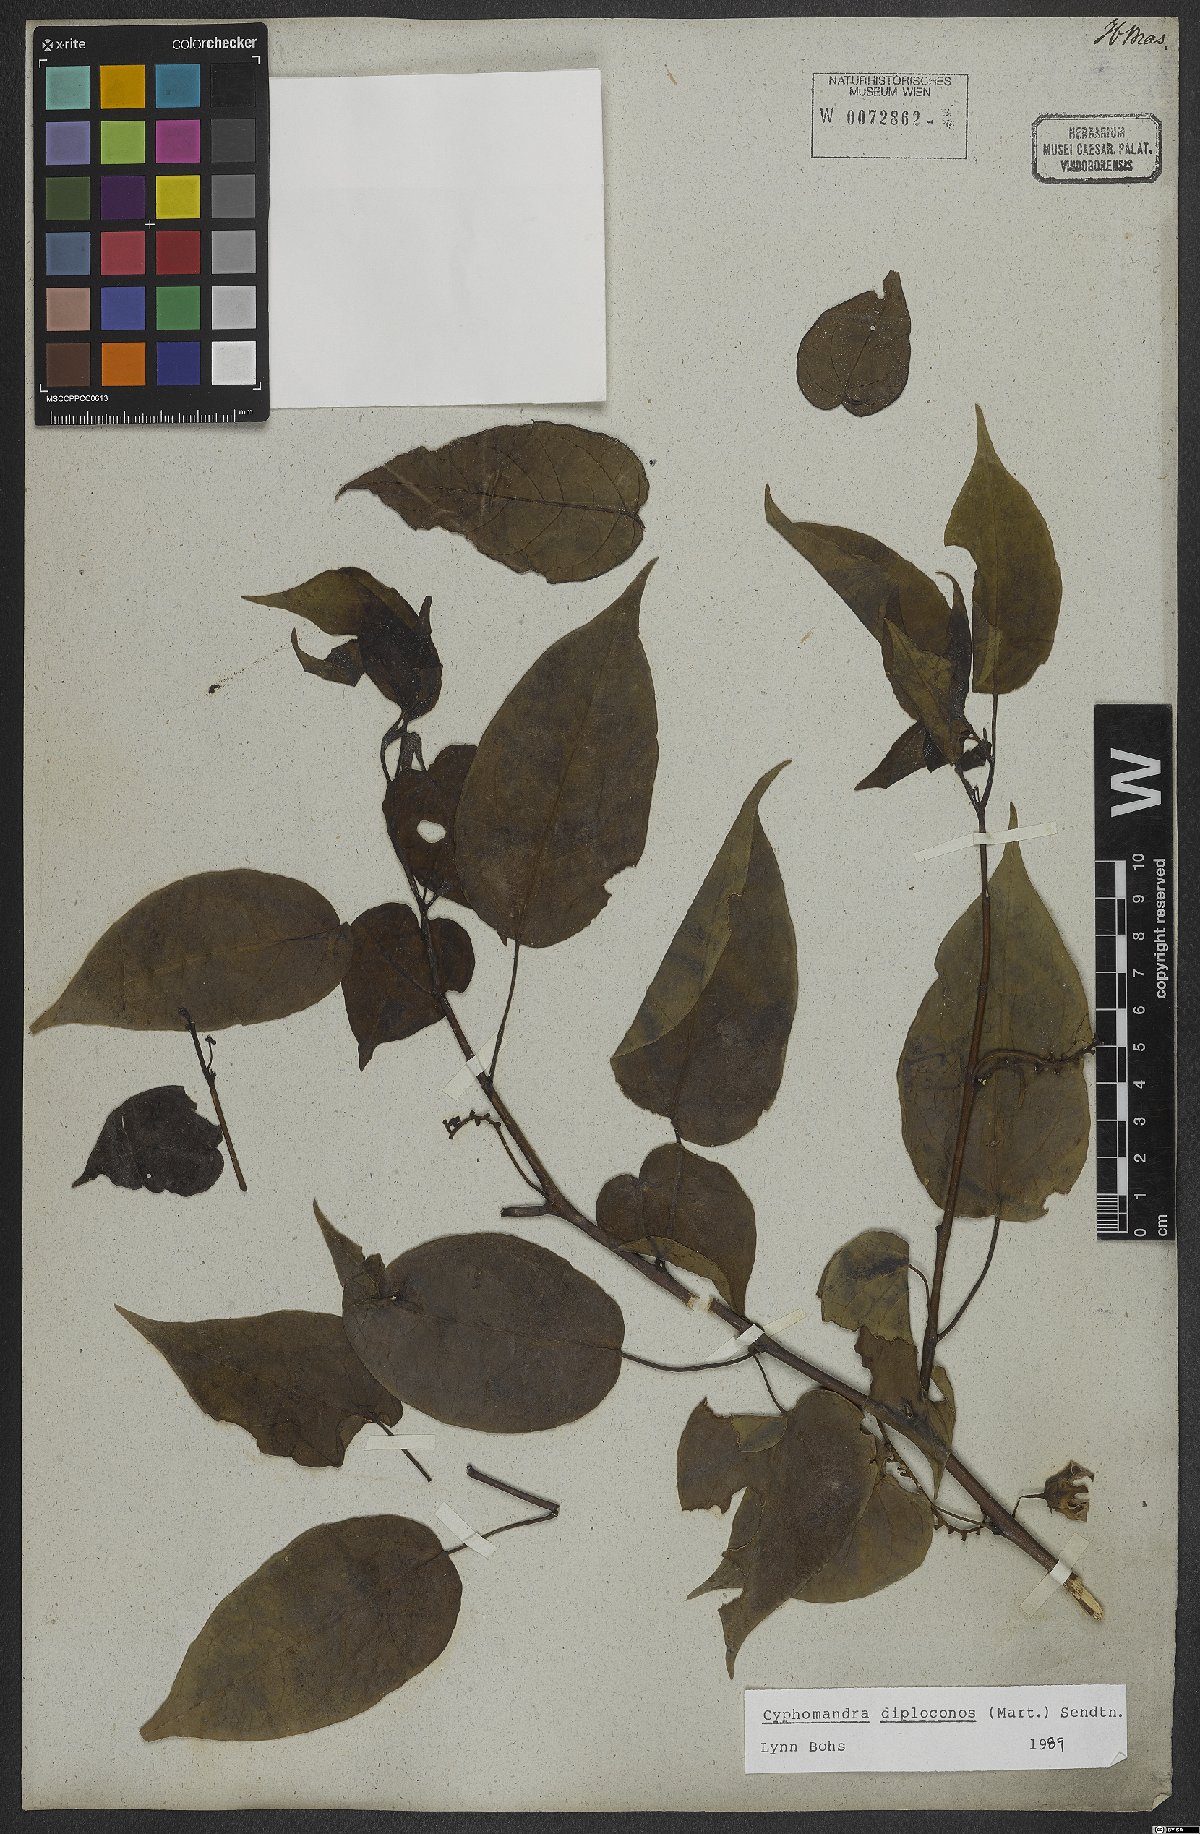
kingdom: Plantae
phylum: Tracheophyta
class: Magnoliopsida
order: Solanales
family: Solanaceae
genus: Solanum
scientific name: Solanum diploconos
